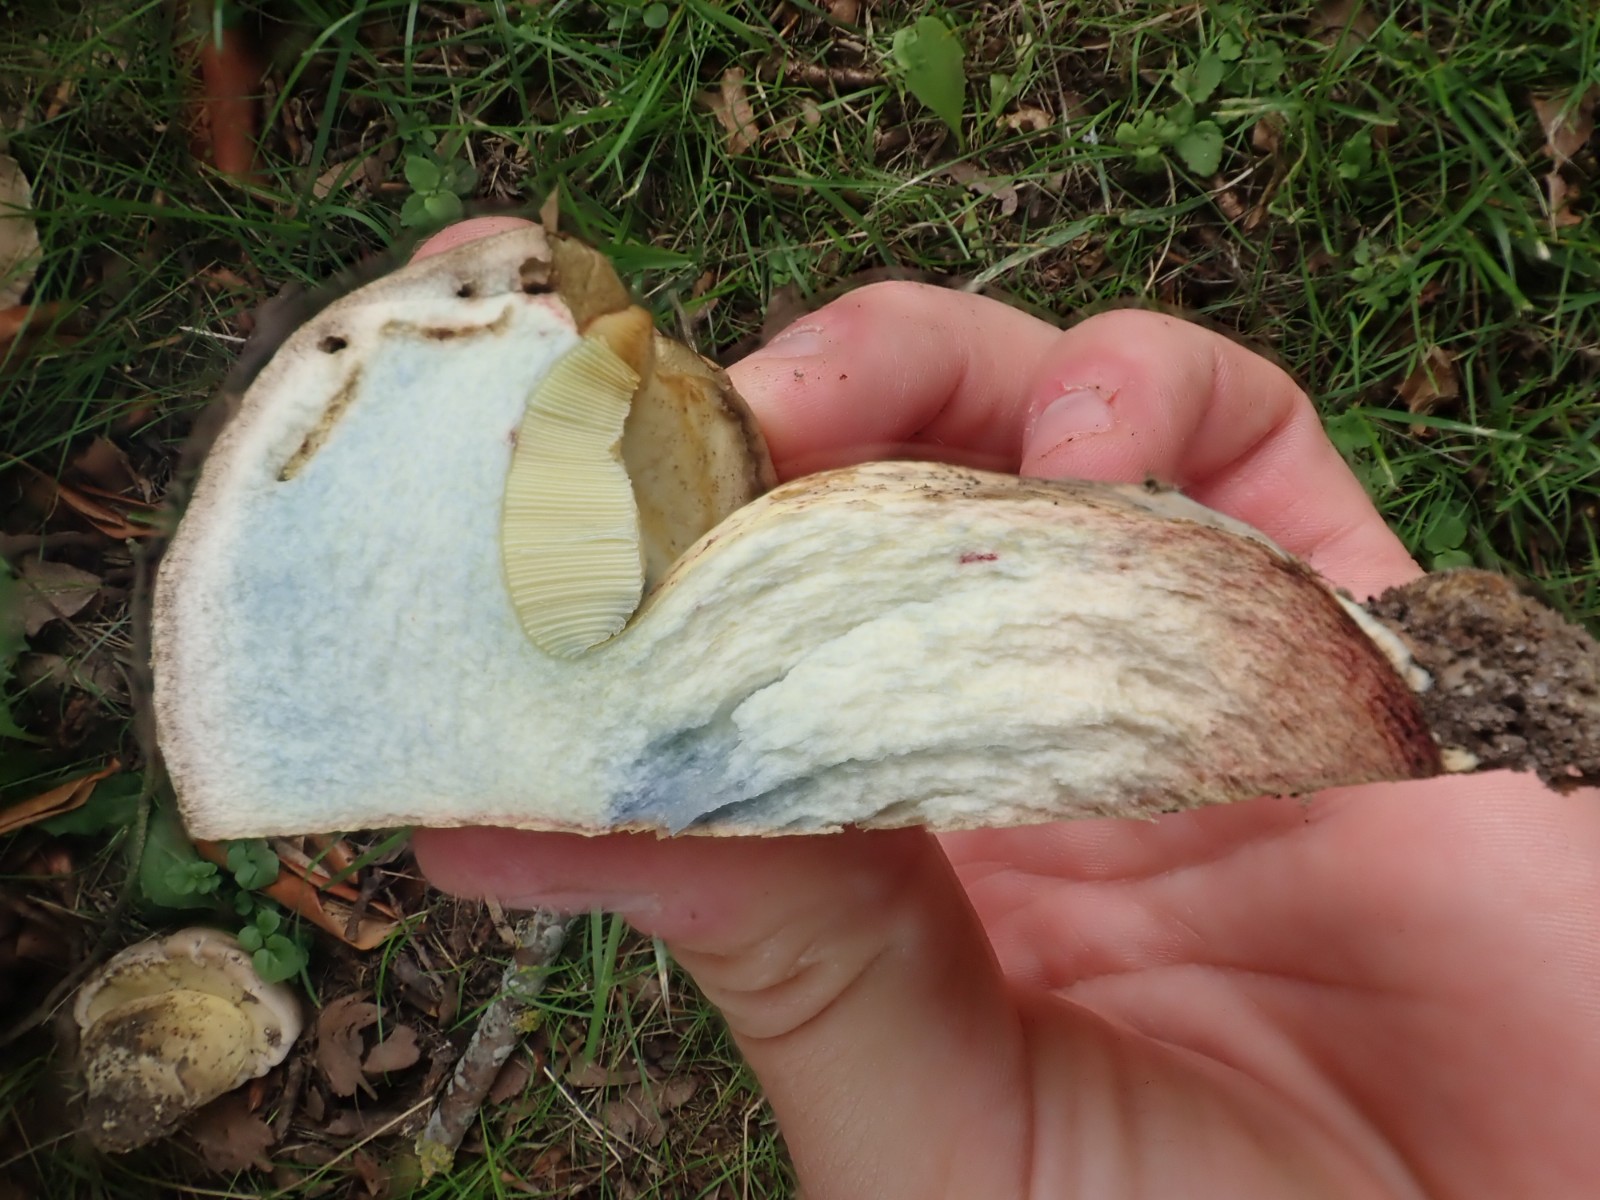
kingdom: Fungi
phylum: Basidiomycota
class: Agaricomycetes
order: Boletales
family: Boletaceae
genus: Caloboletus
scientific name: Caloboletus radicans
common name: rod-rørhat
